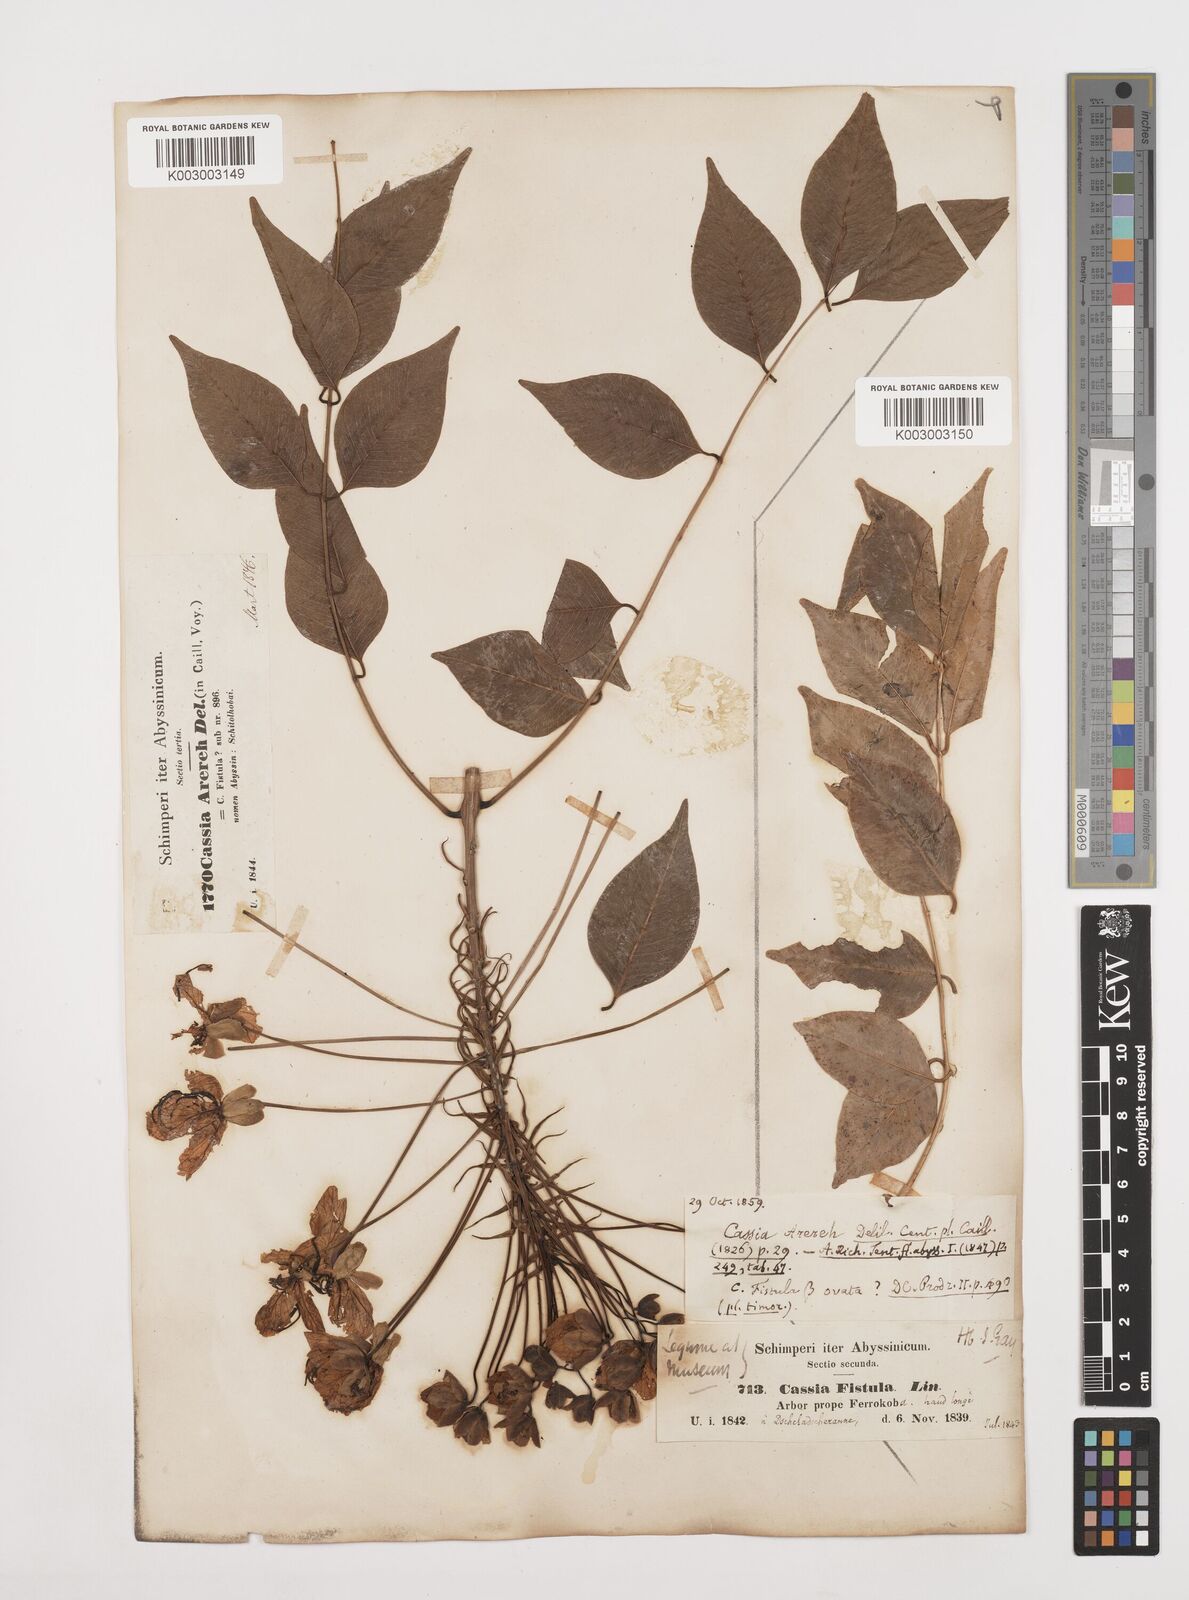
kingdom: Plantae
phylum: Tracheophyta
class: Magnoliopsida
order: Fabales
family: Fabaceae
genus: Cassia
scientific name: Cassia arereh
